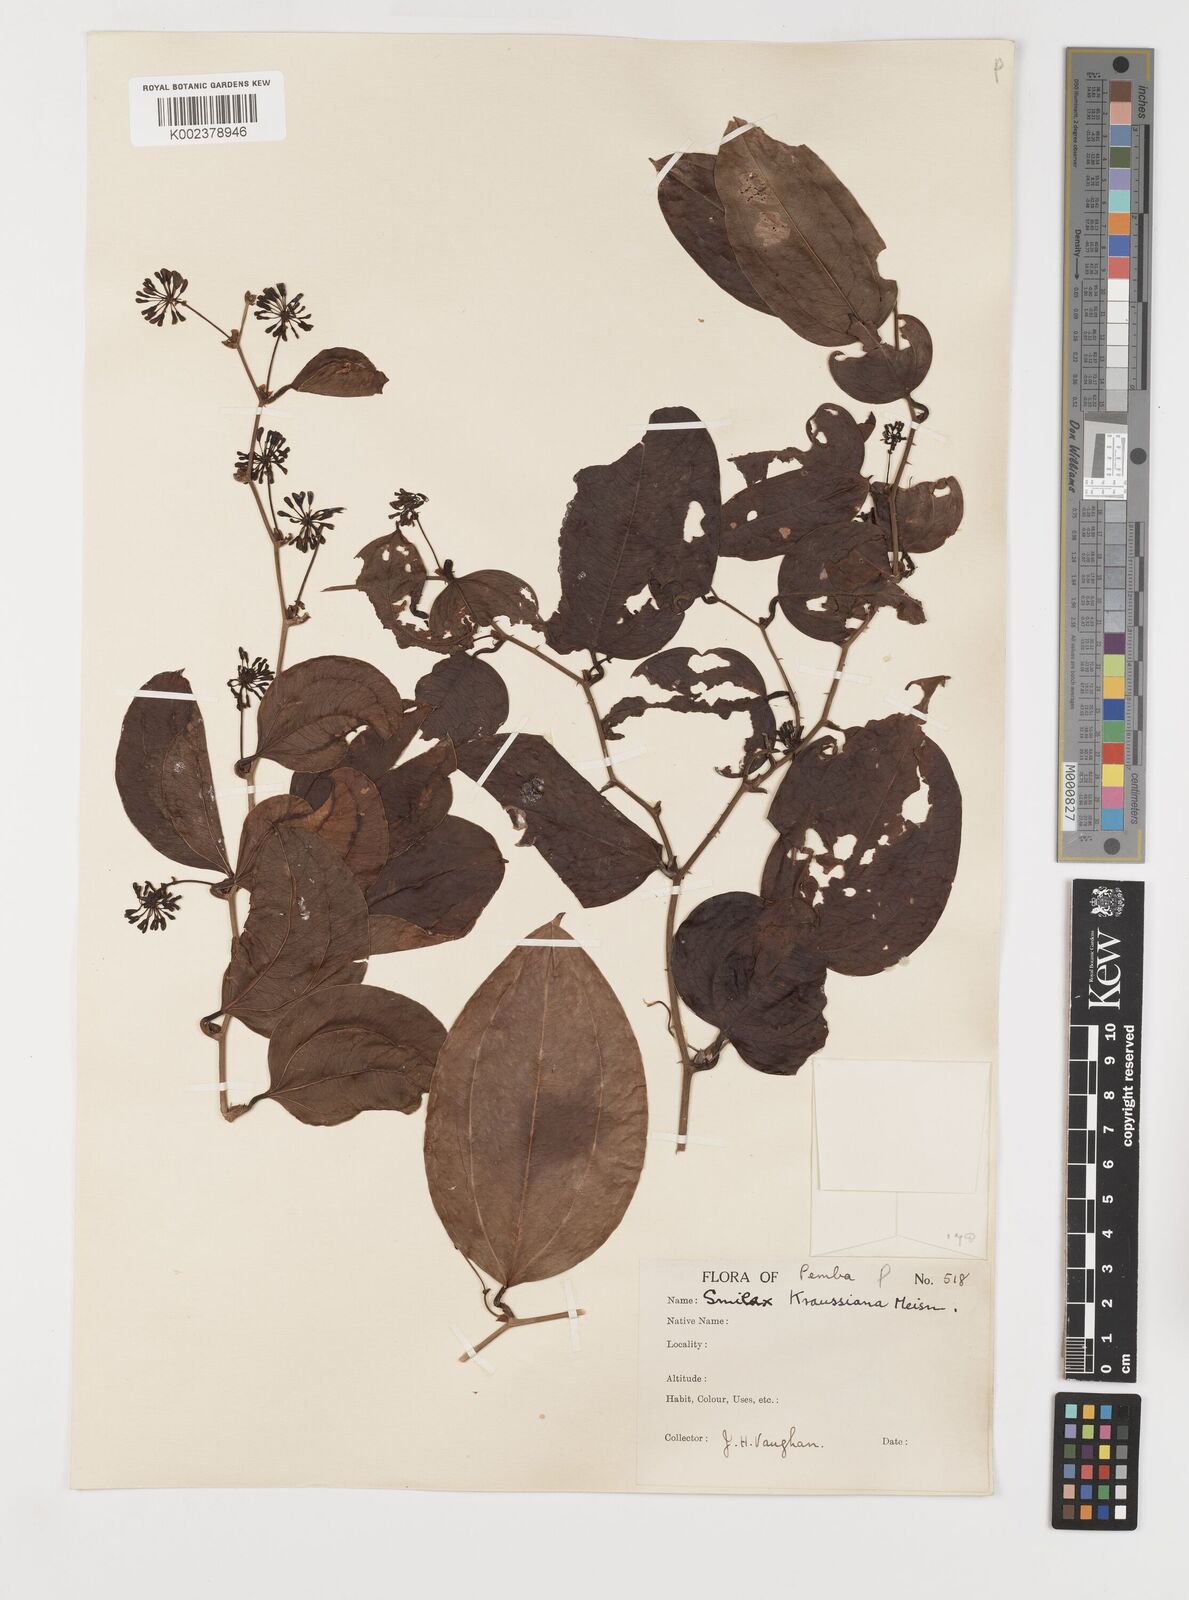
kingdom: Plantae
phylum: Tracheophyta
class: Liliopsida
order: Liliales
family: Smilacaceae
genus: Smilax
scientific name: Smilax anceps
